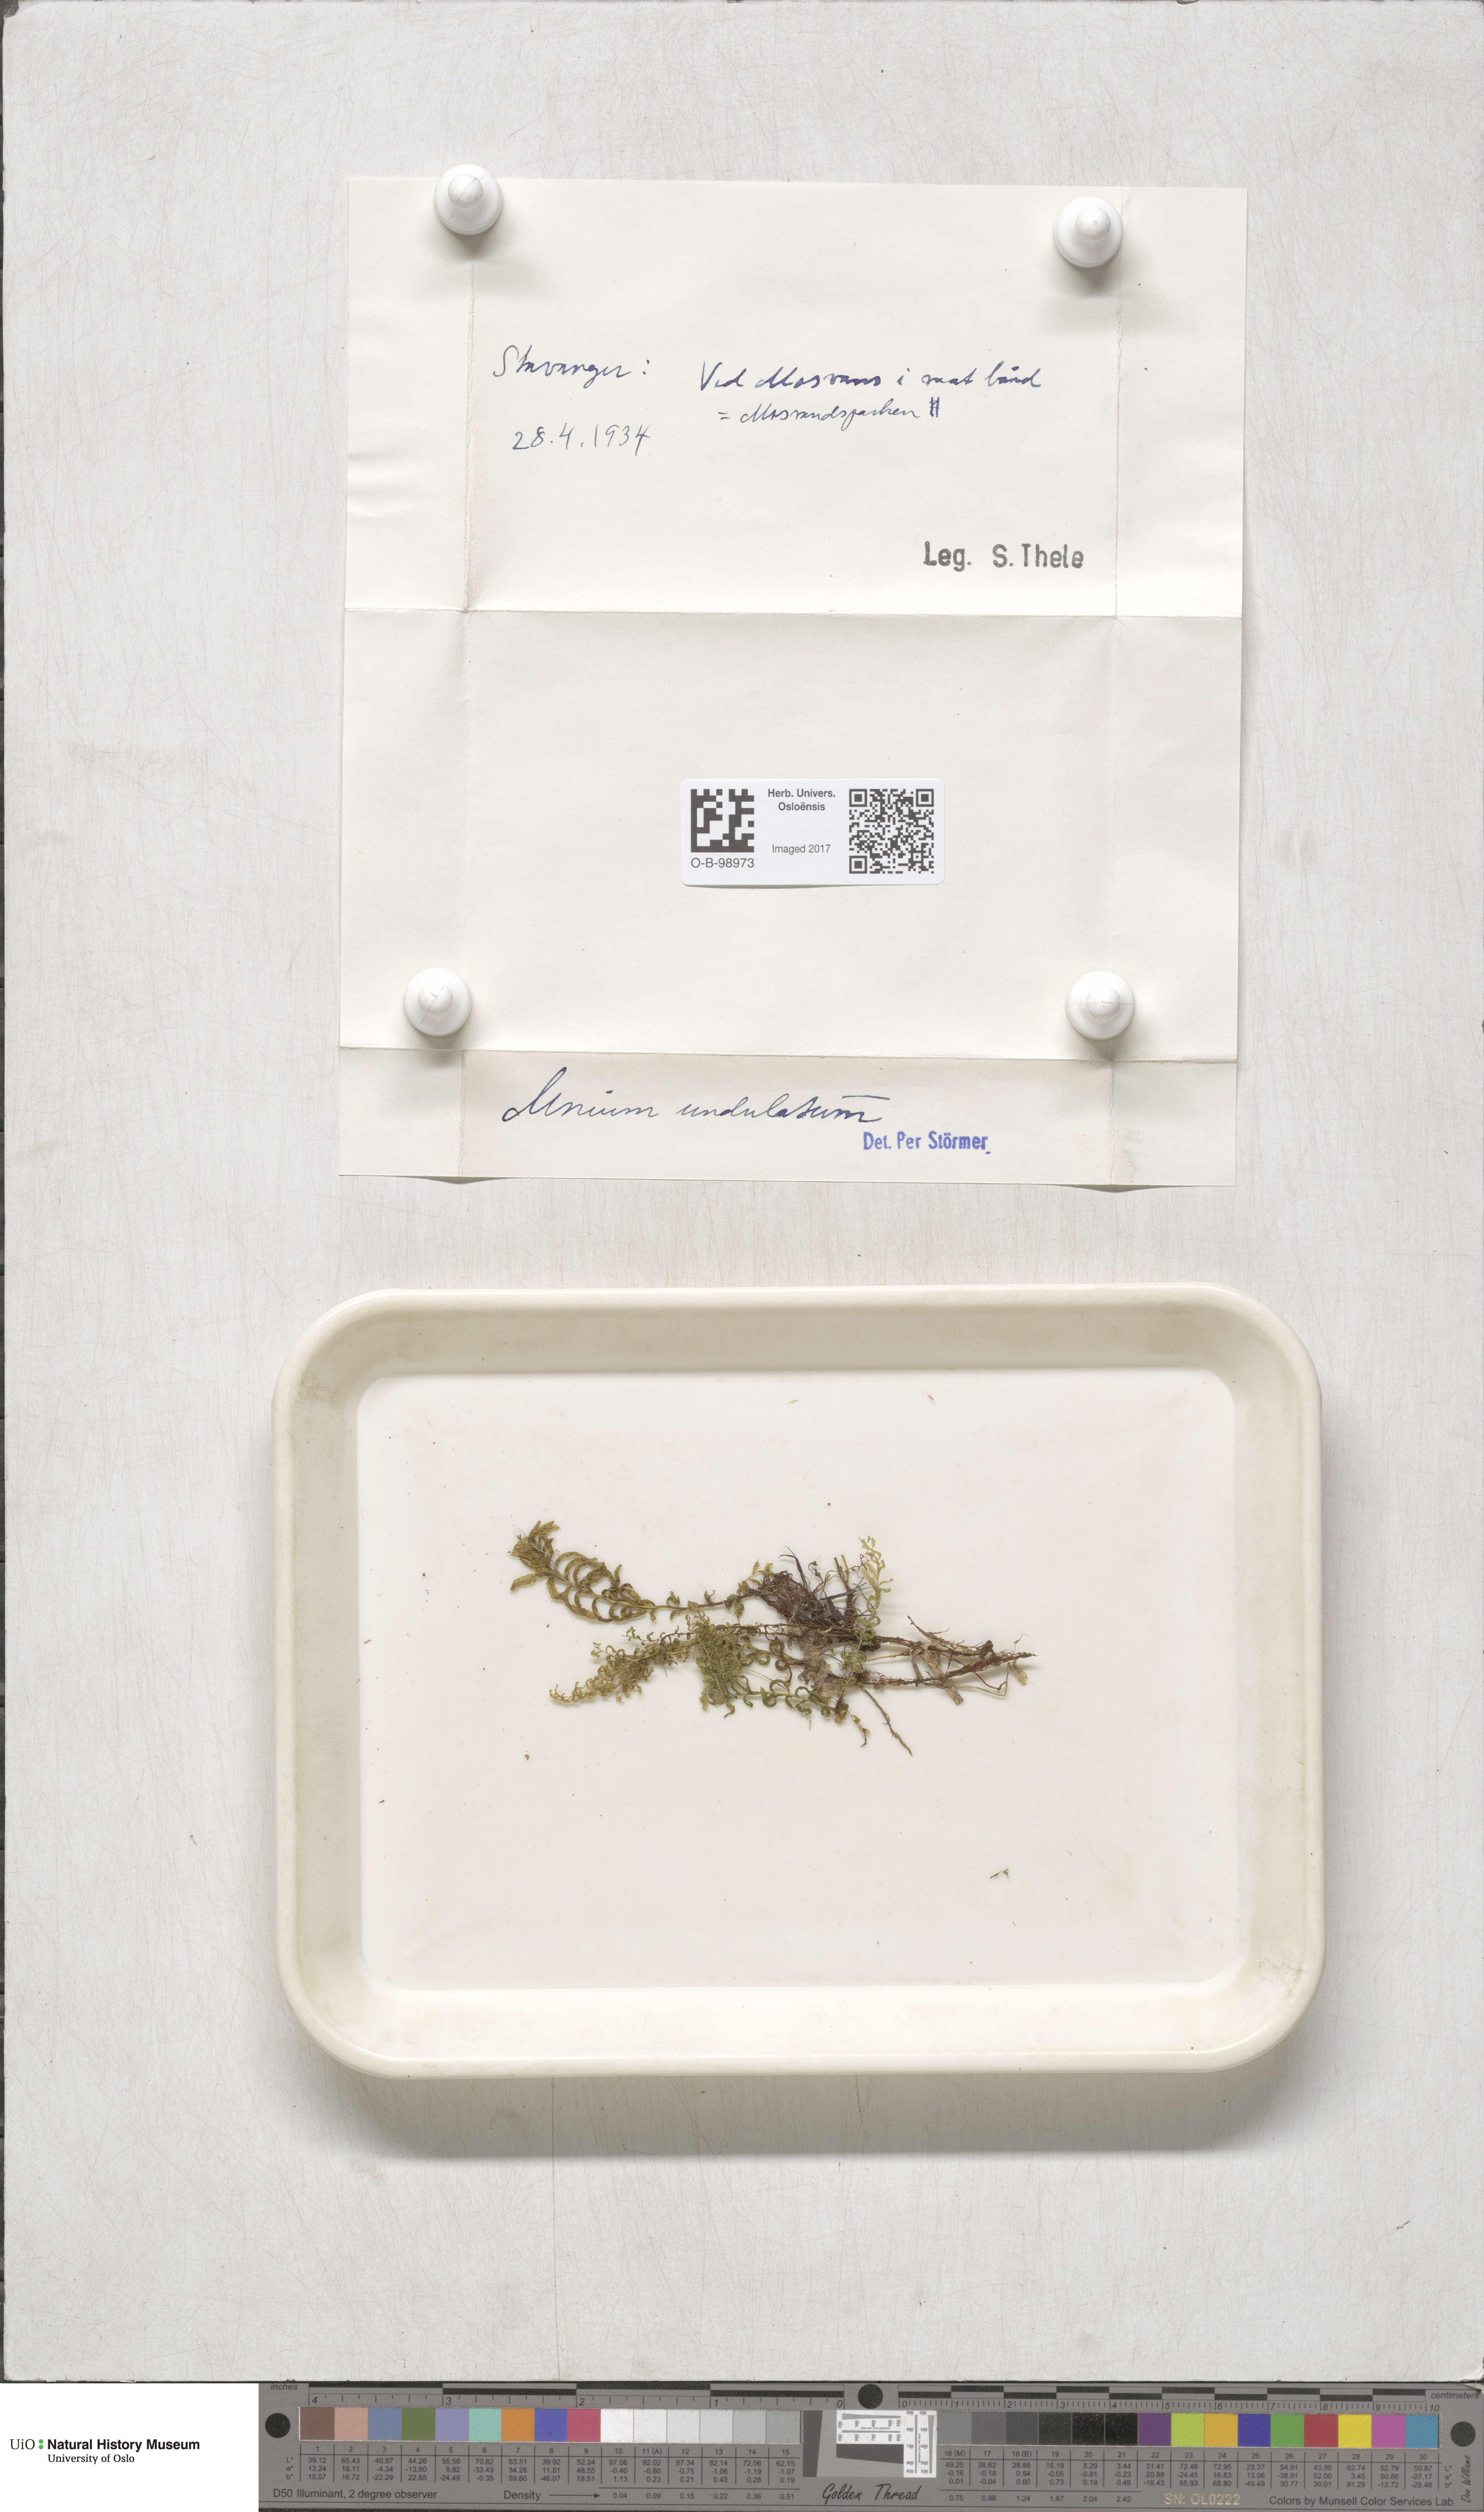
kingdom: Plantae
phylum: Bryophyta
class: Bryopsida
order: Bryales
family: Mniaceae
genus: Plagiomnium
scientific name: Plagiomnium undulatum
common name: Hart's-tongue thyme-moss
